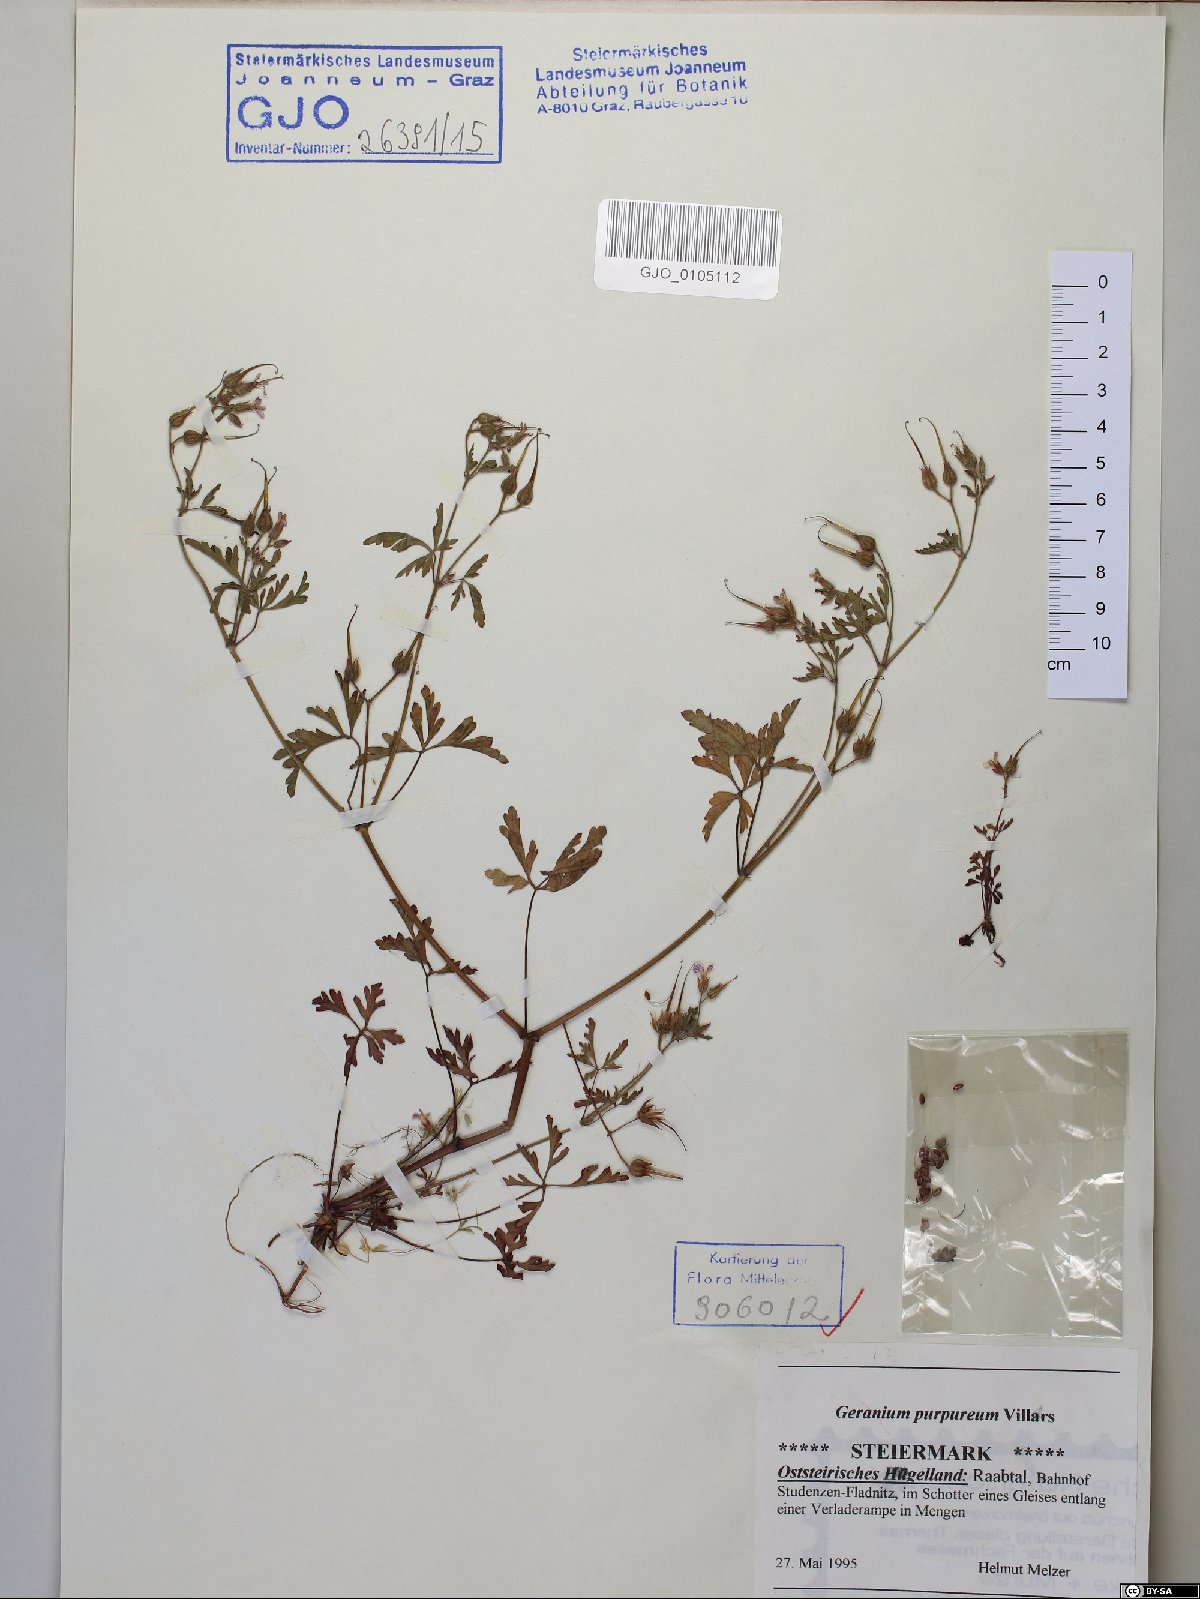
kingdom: Plantae
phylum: Tracheophyta
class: Magnoliopsida
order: Geraniales
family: Geraniaceae
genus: Geranium
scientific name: Geranium purpureum
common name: Little-robin
